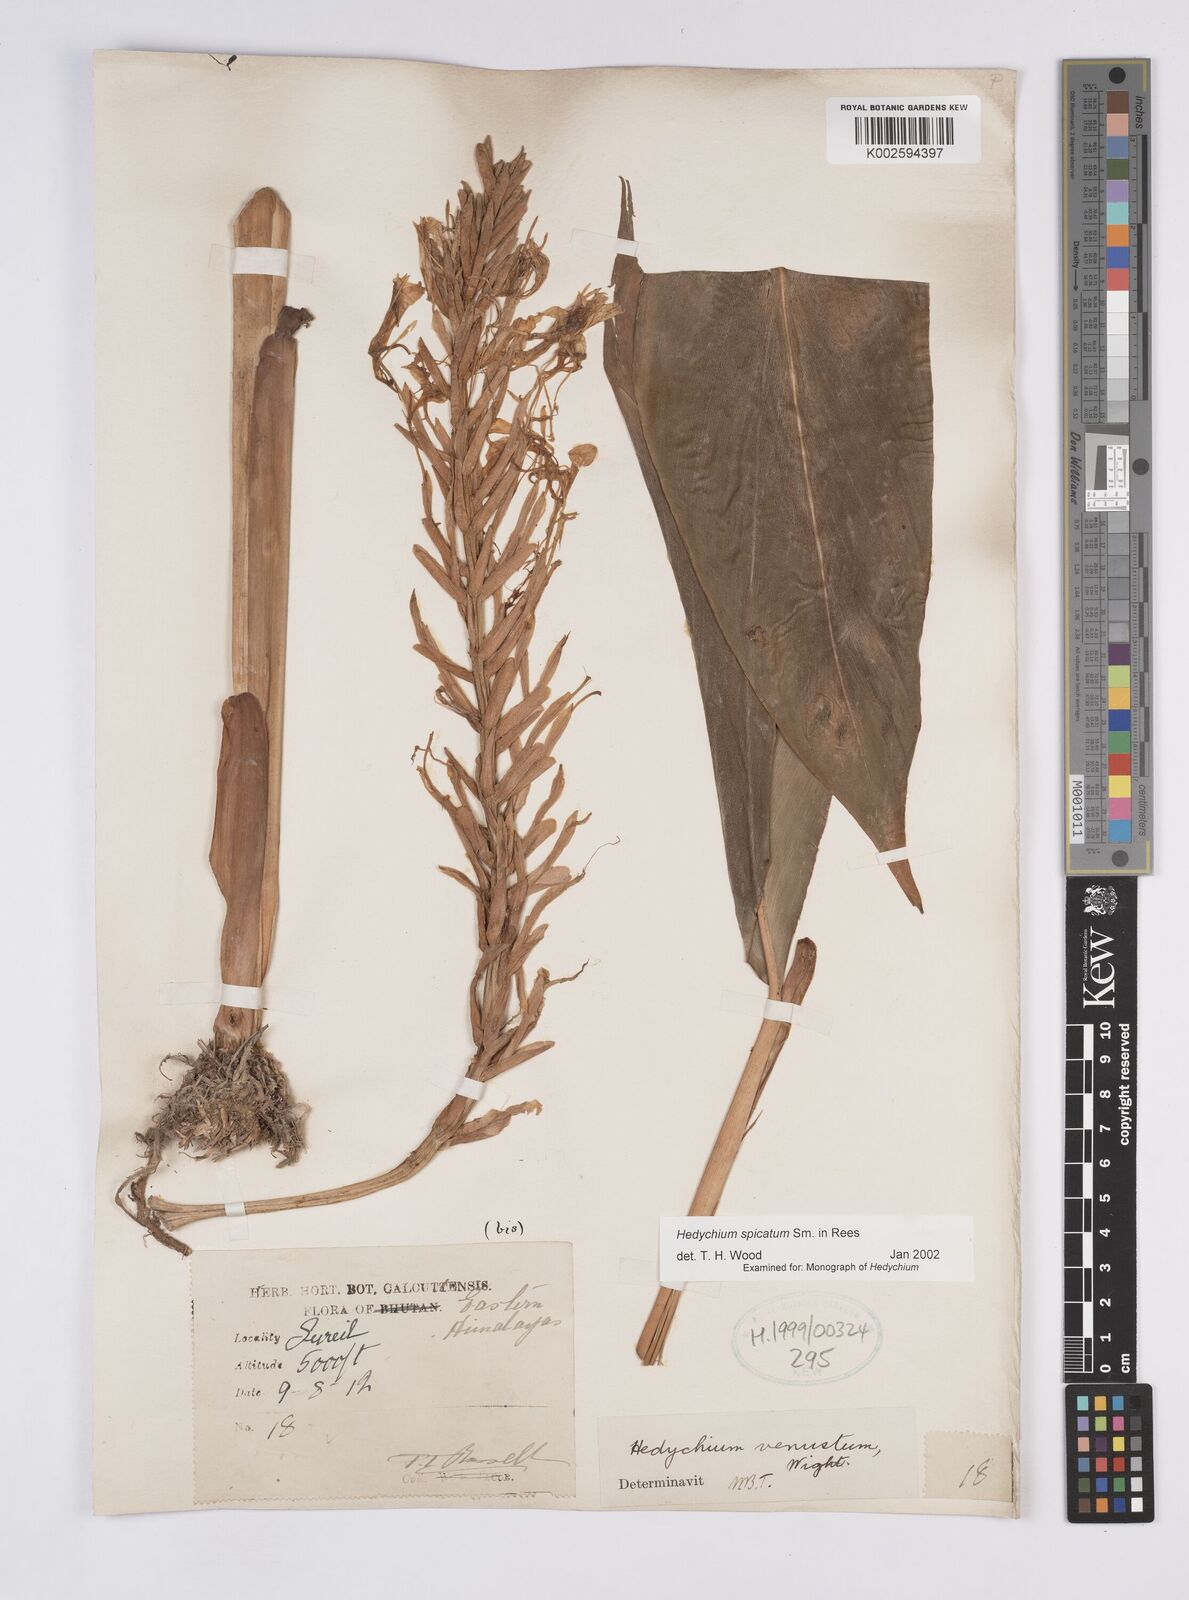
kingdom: Plantae
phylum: Tracheophyta
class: Liliopsida
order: Zingiberales
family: Zingiberaceae
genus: Hedychium
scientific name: Hedychium spicatum
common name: Spiked ginger-lily
